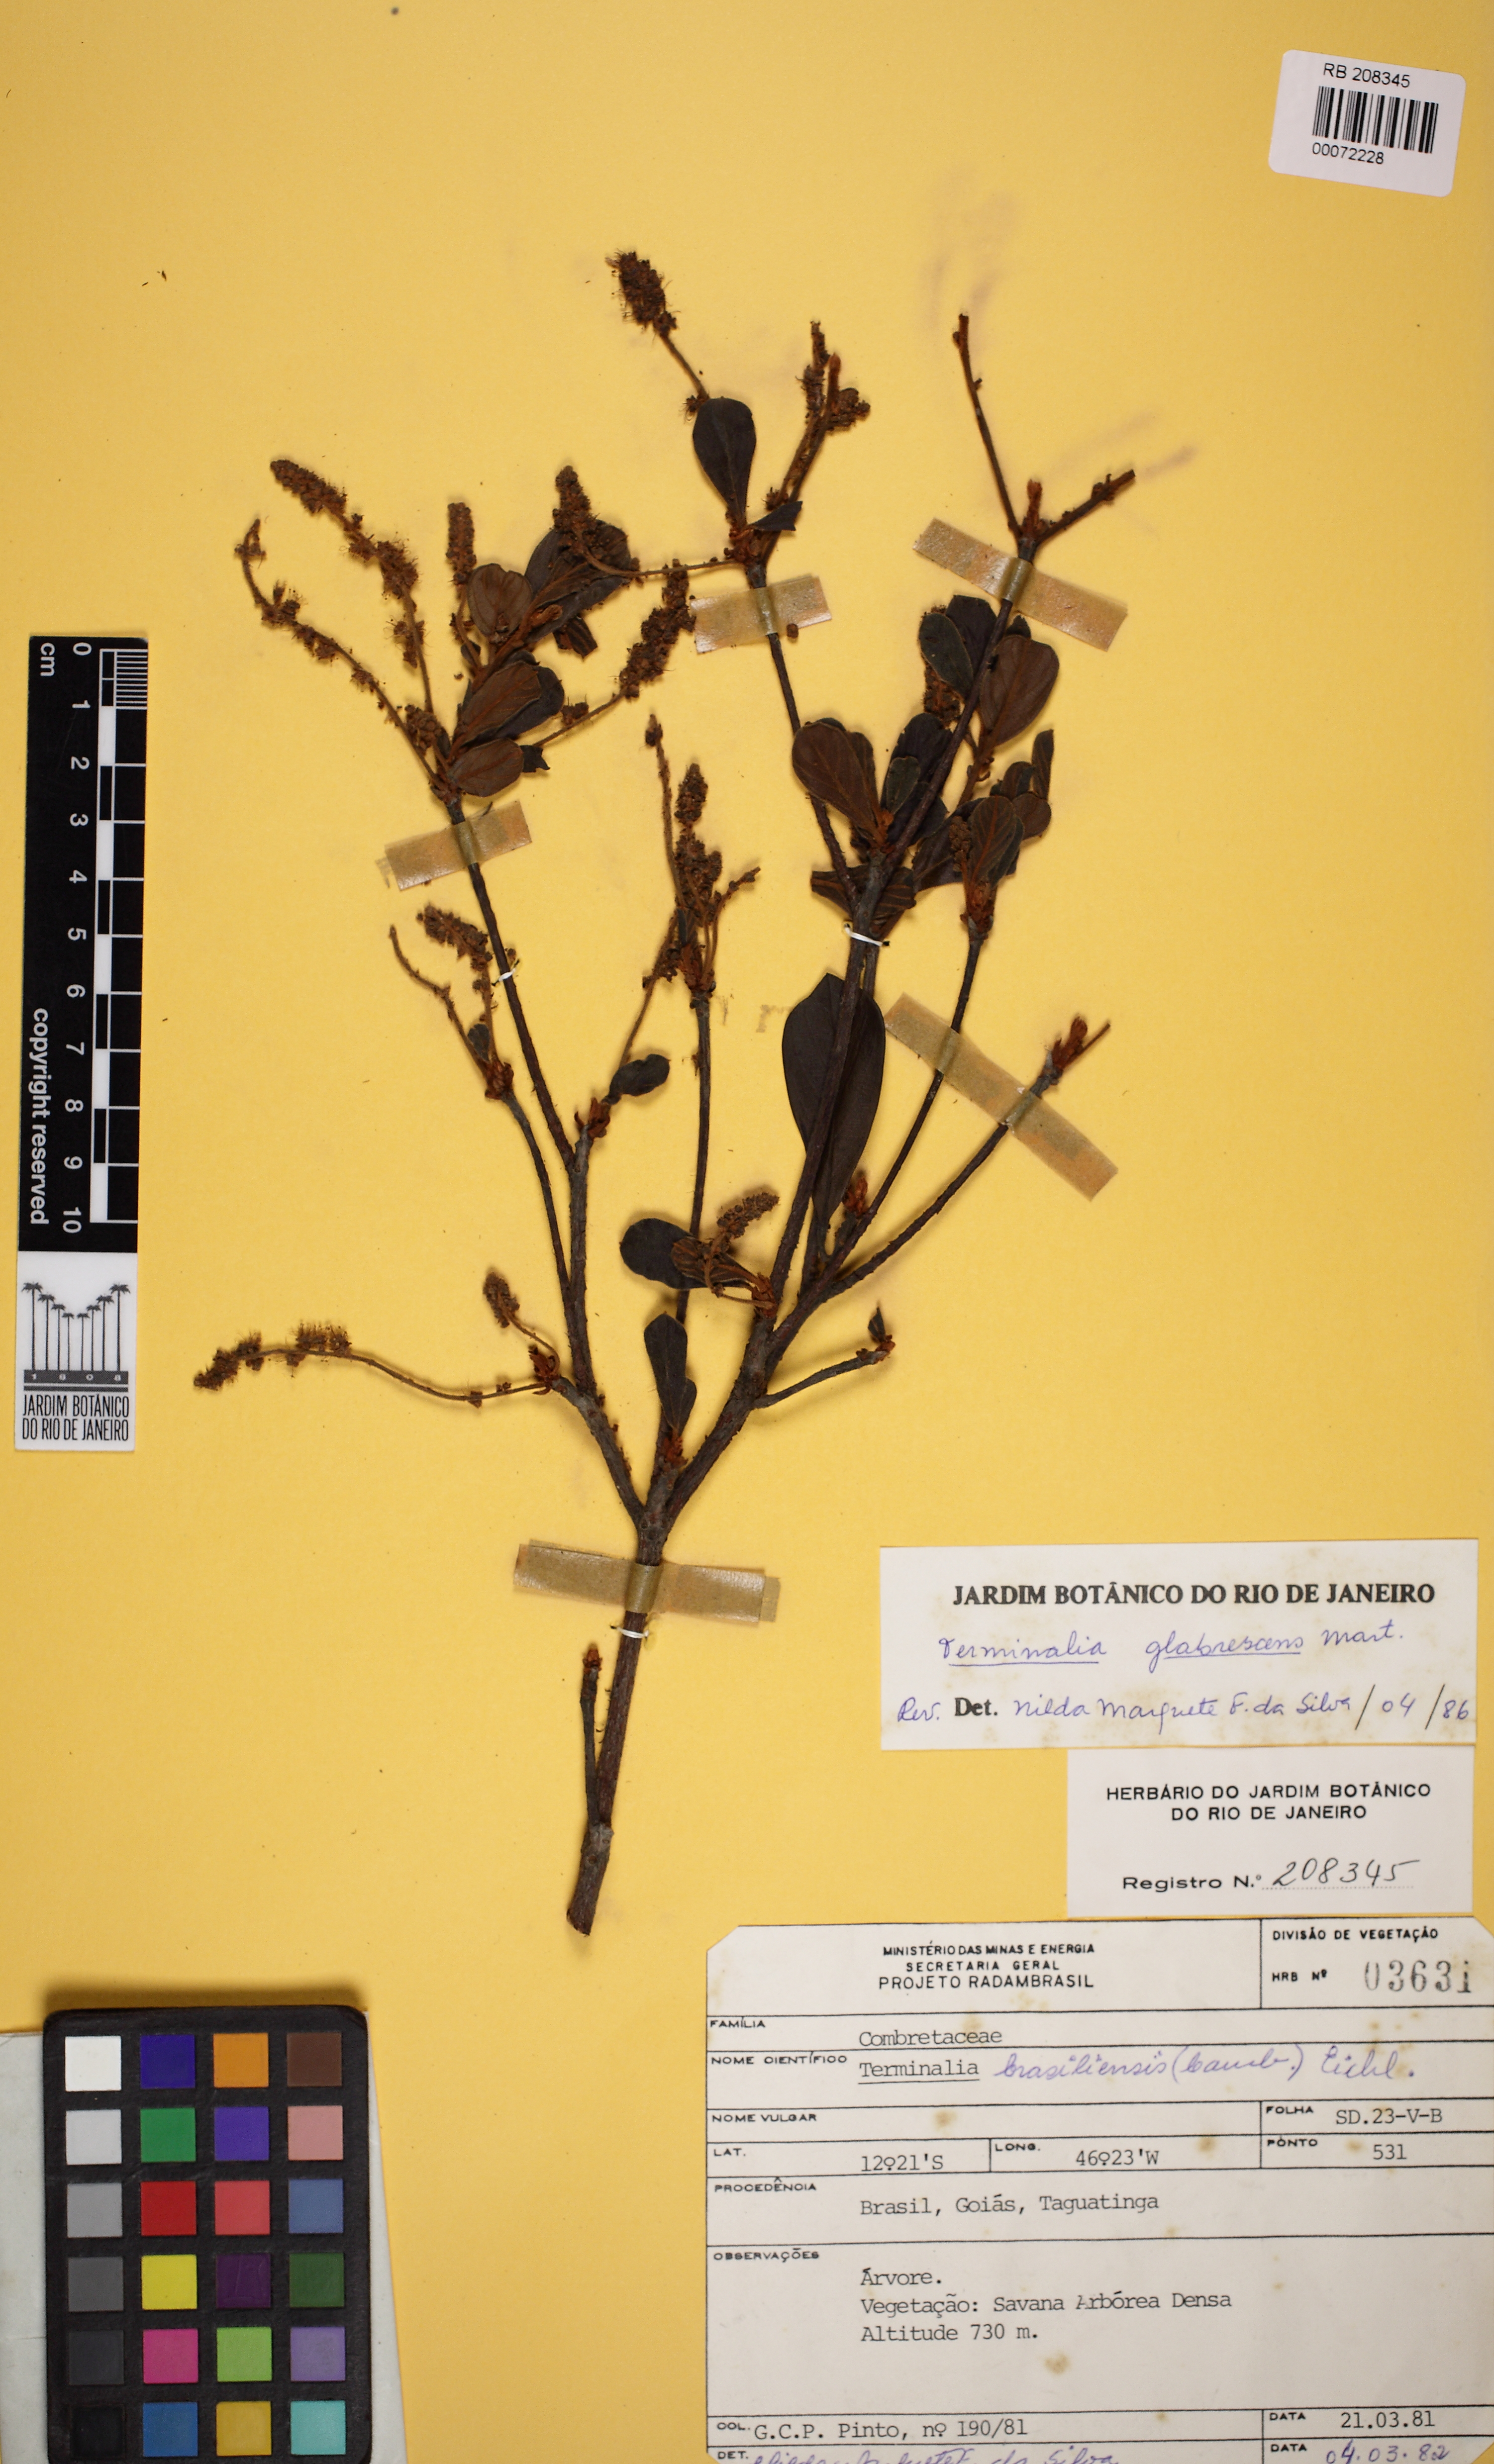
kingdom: Plantae
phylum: Tracheophyta
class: Magnoliopsida
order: Myrtales
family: Combretaceae
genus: Terminalia
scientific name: Terminalia glabrescens
